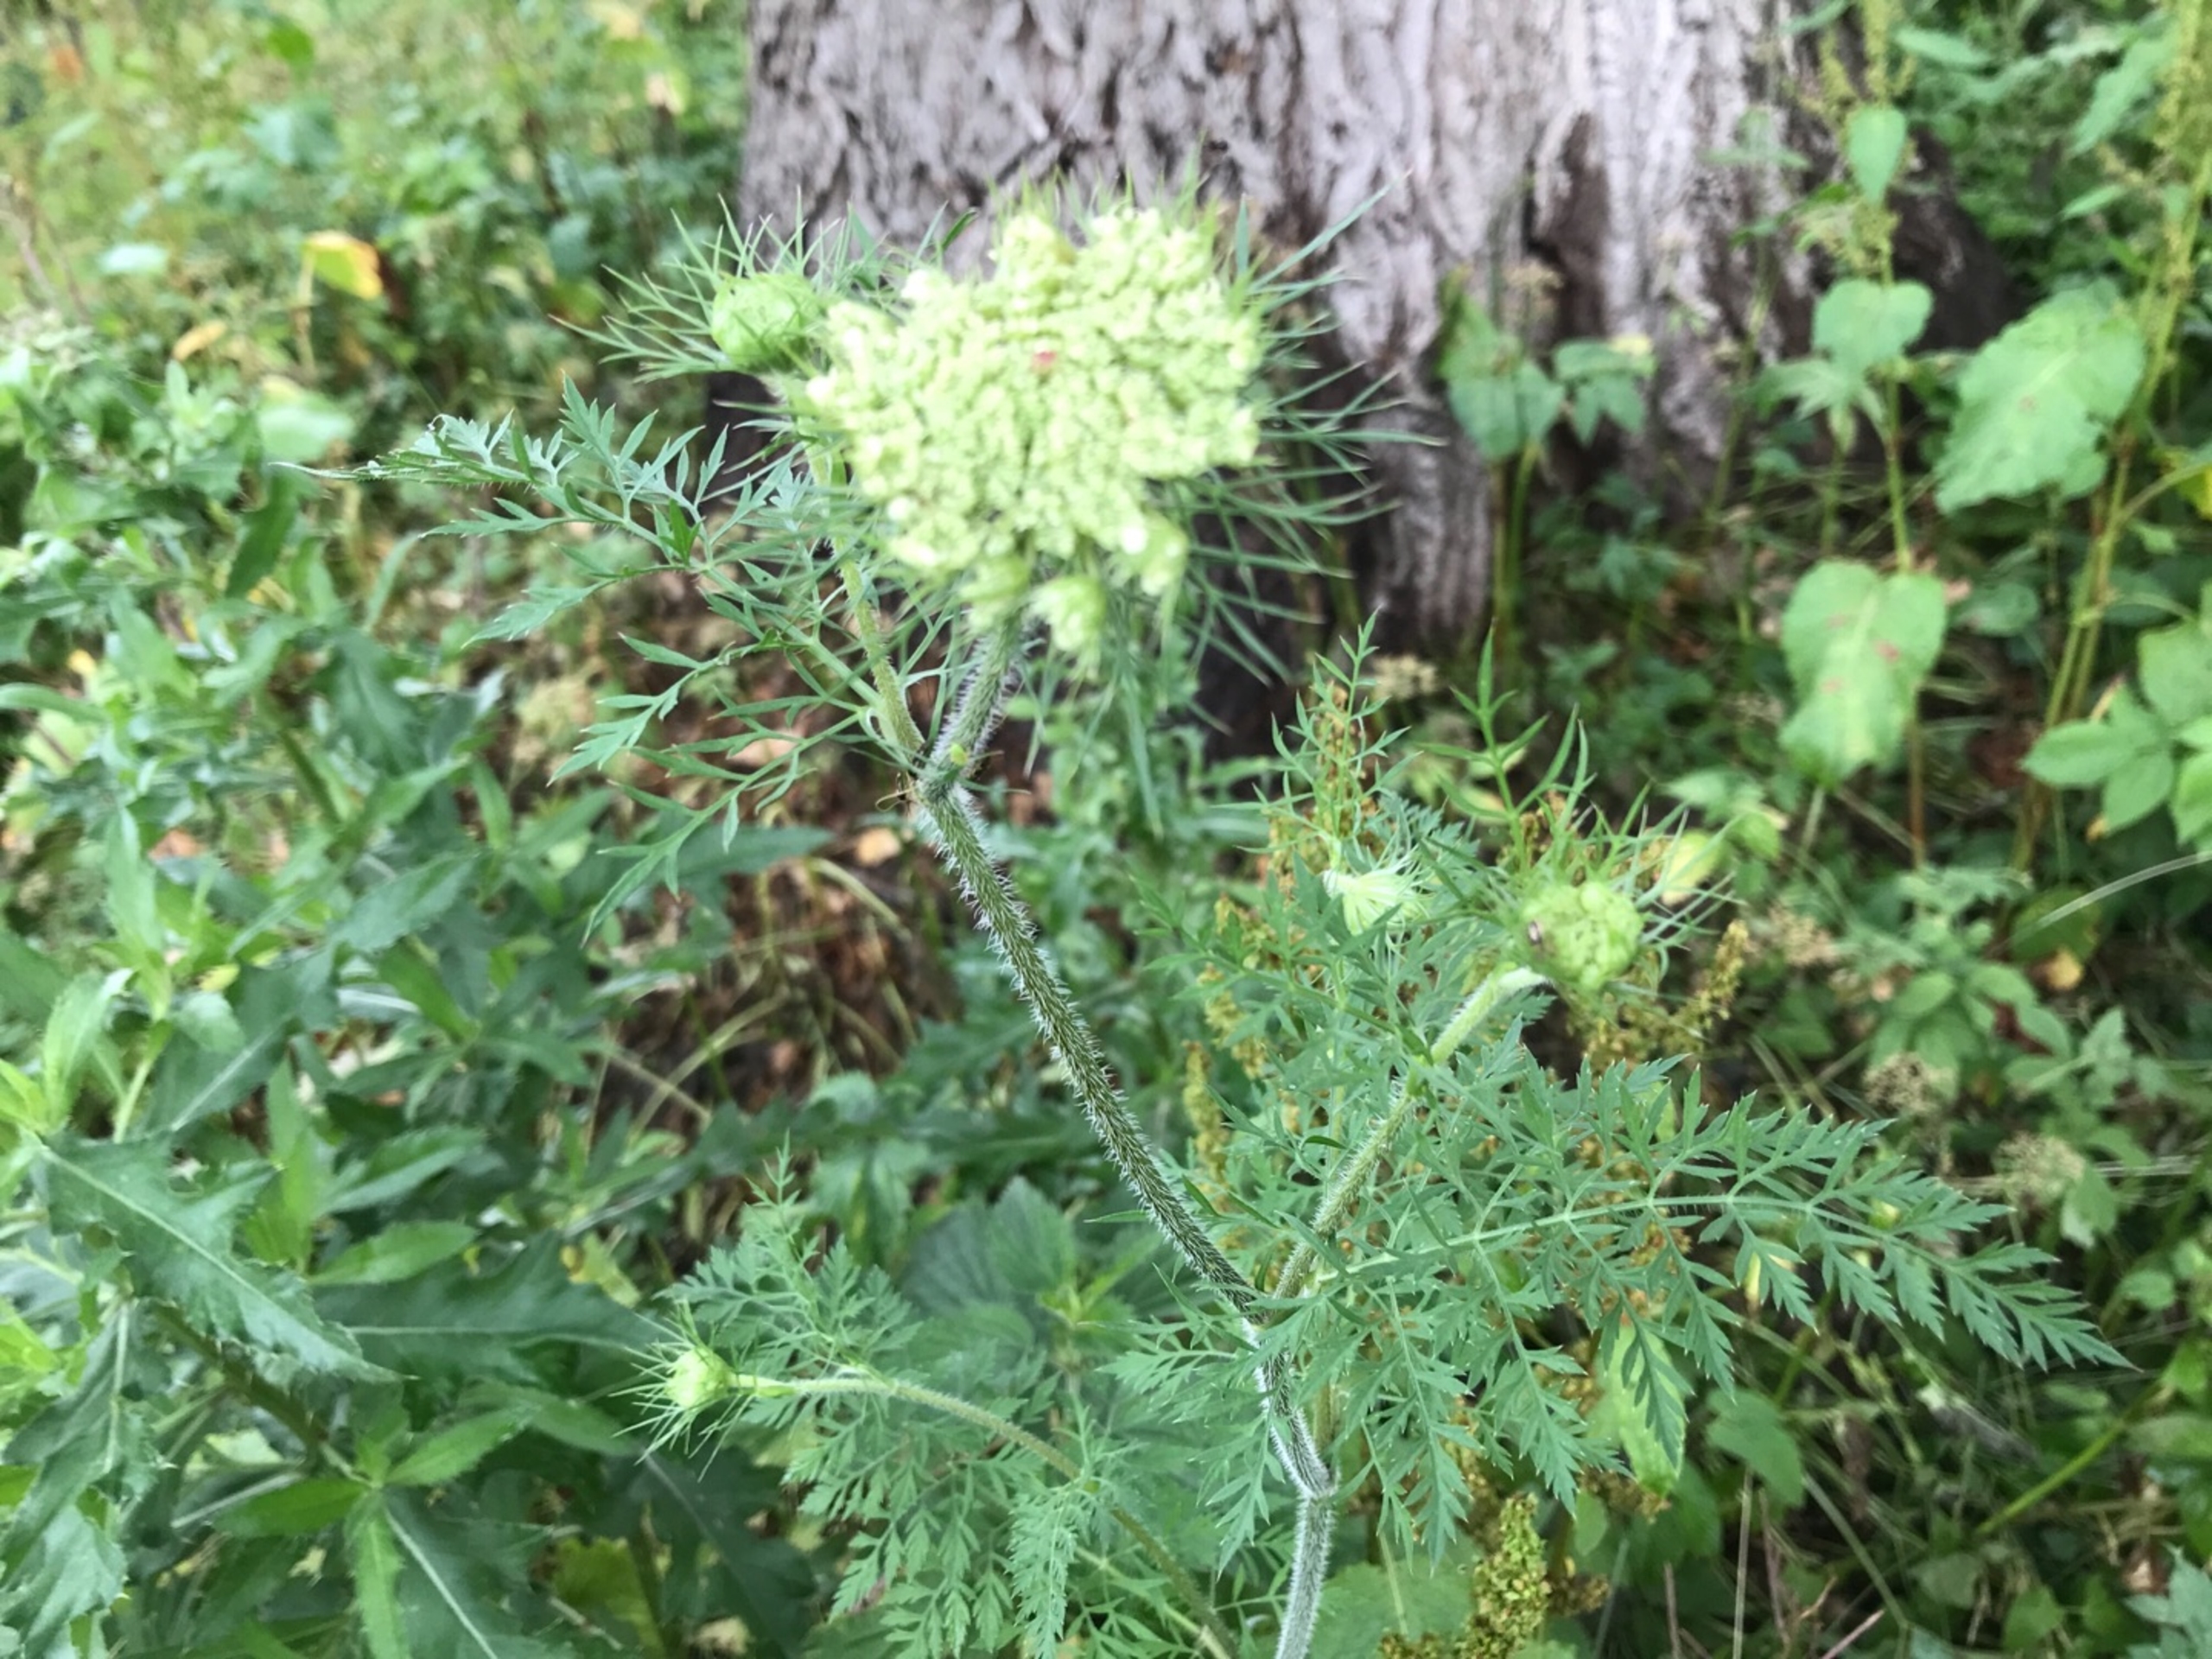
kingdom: Plantae
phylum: Tracheophyta
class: Magnoliopsida
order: Apiales
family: Apiaceae
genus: Daucus
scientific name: Daucus carota
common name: Gulerod
